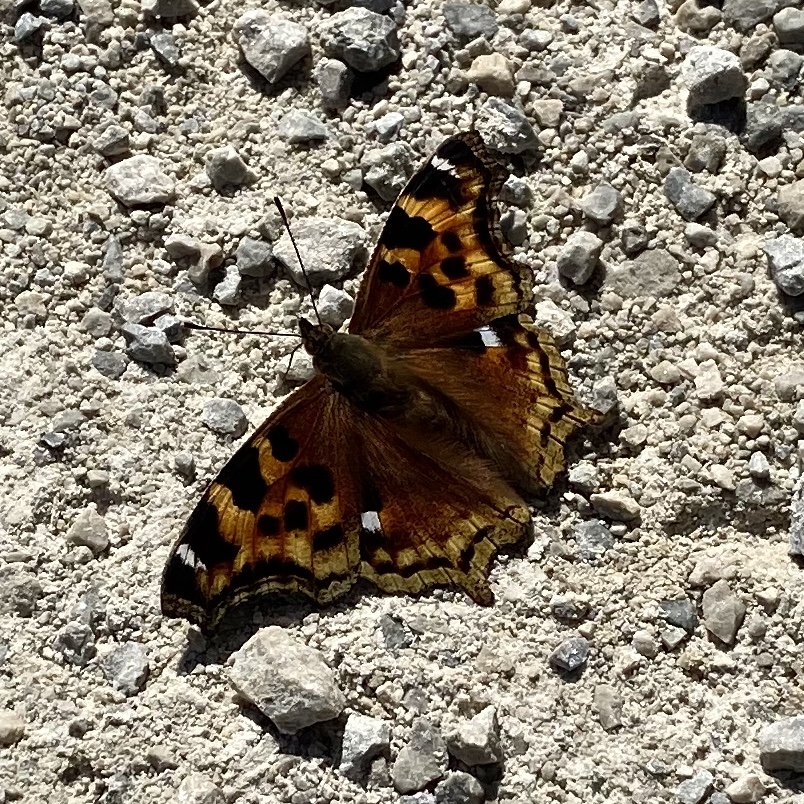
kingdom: Animalia
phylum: Arthropoda
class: Insecta
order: Lepidoptera
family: Nymphalidae
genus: Polygonia
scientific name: Polygonia vaualbum
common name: Compton Tortoiseshell
